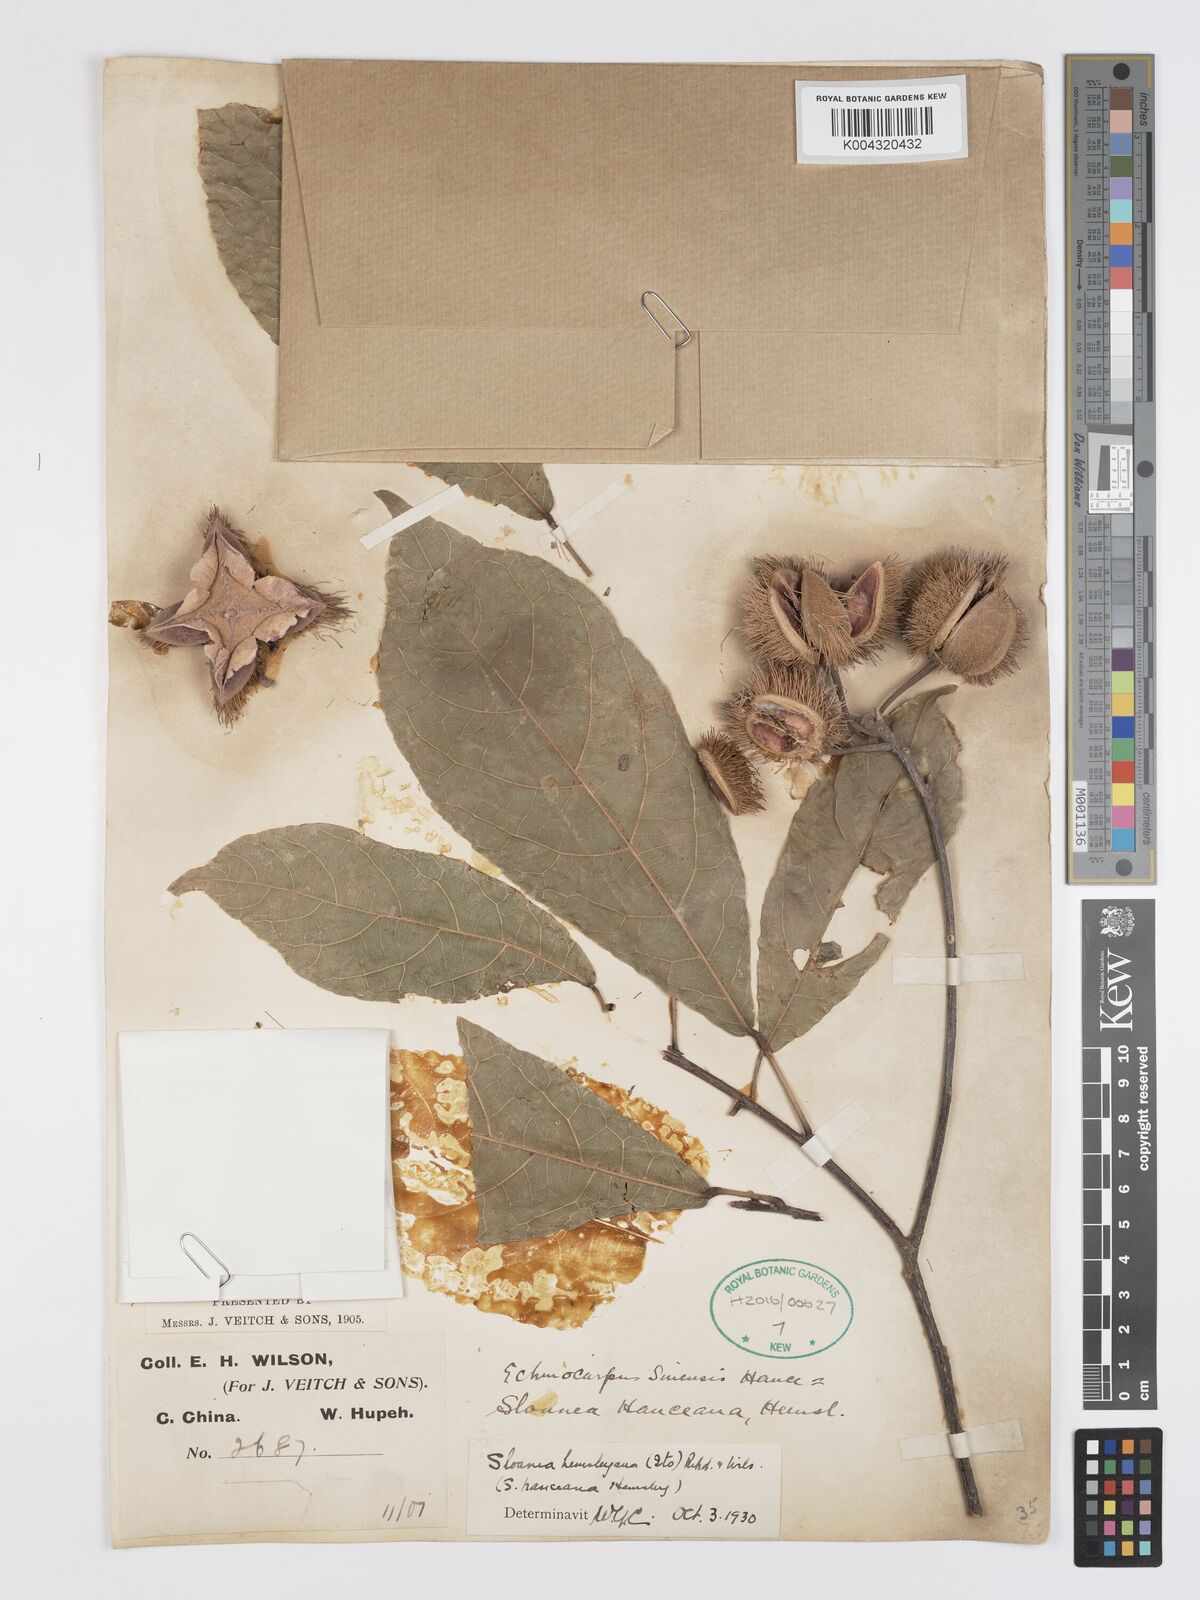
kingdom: Plantae
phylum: Tracheophyta
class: Magnoliopsida
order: Oxalidales
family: Elaeocarpaceae
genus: Sloanea
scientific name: Sloanea hemsleyana
